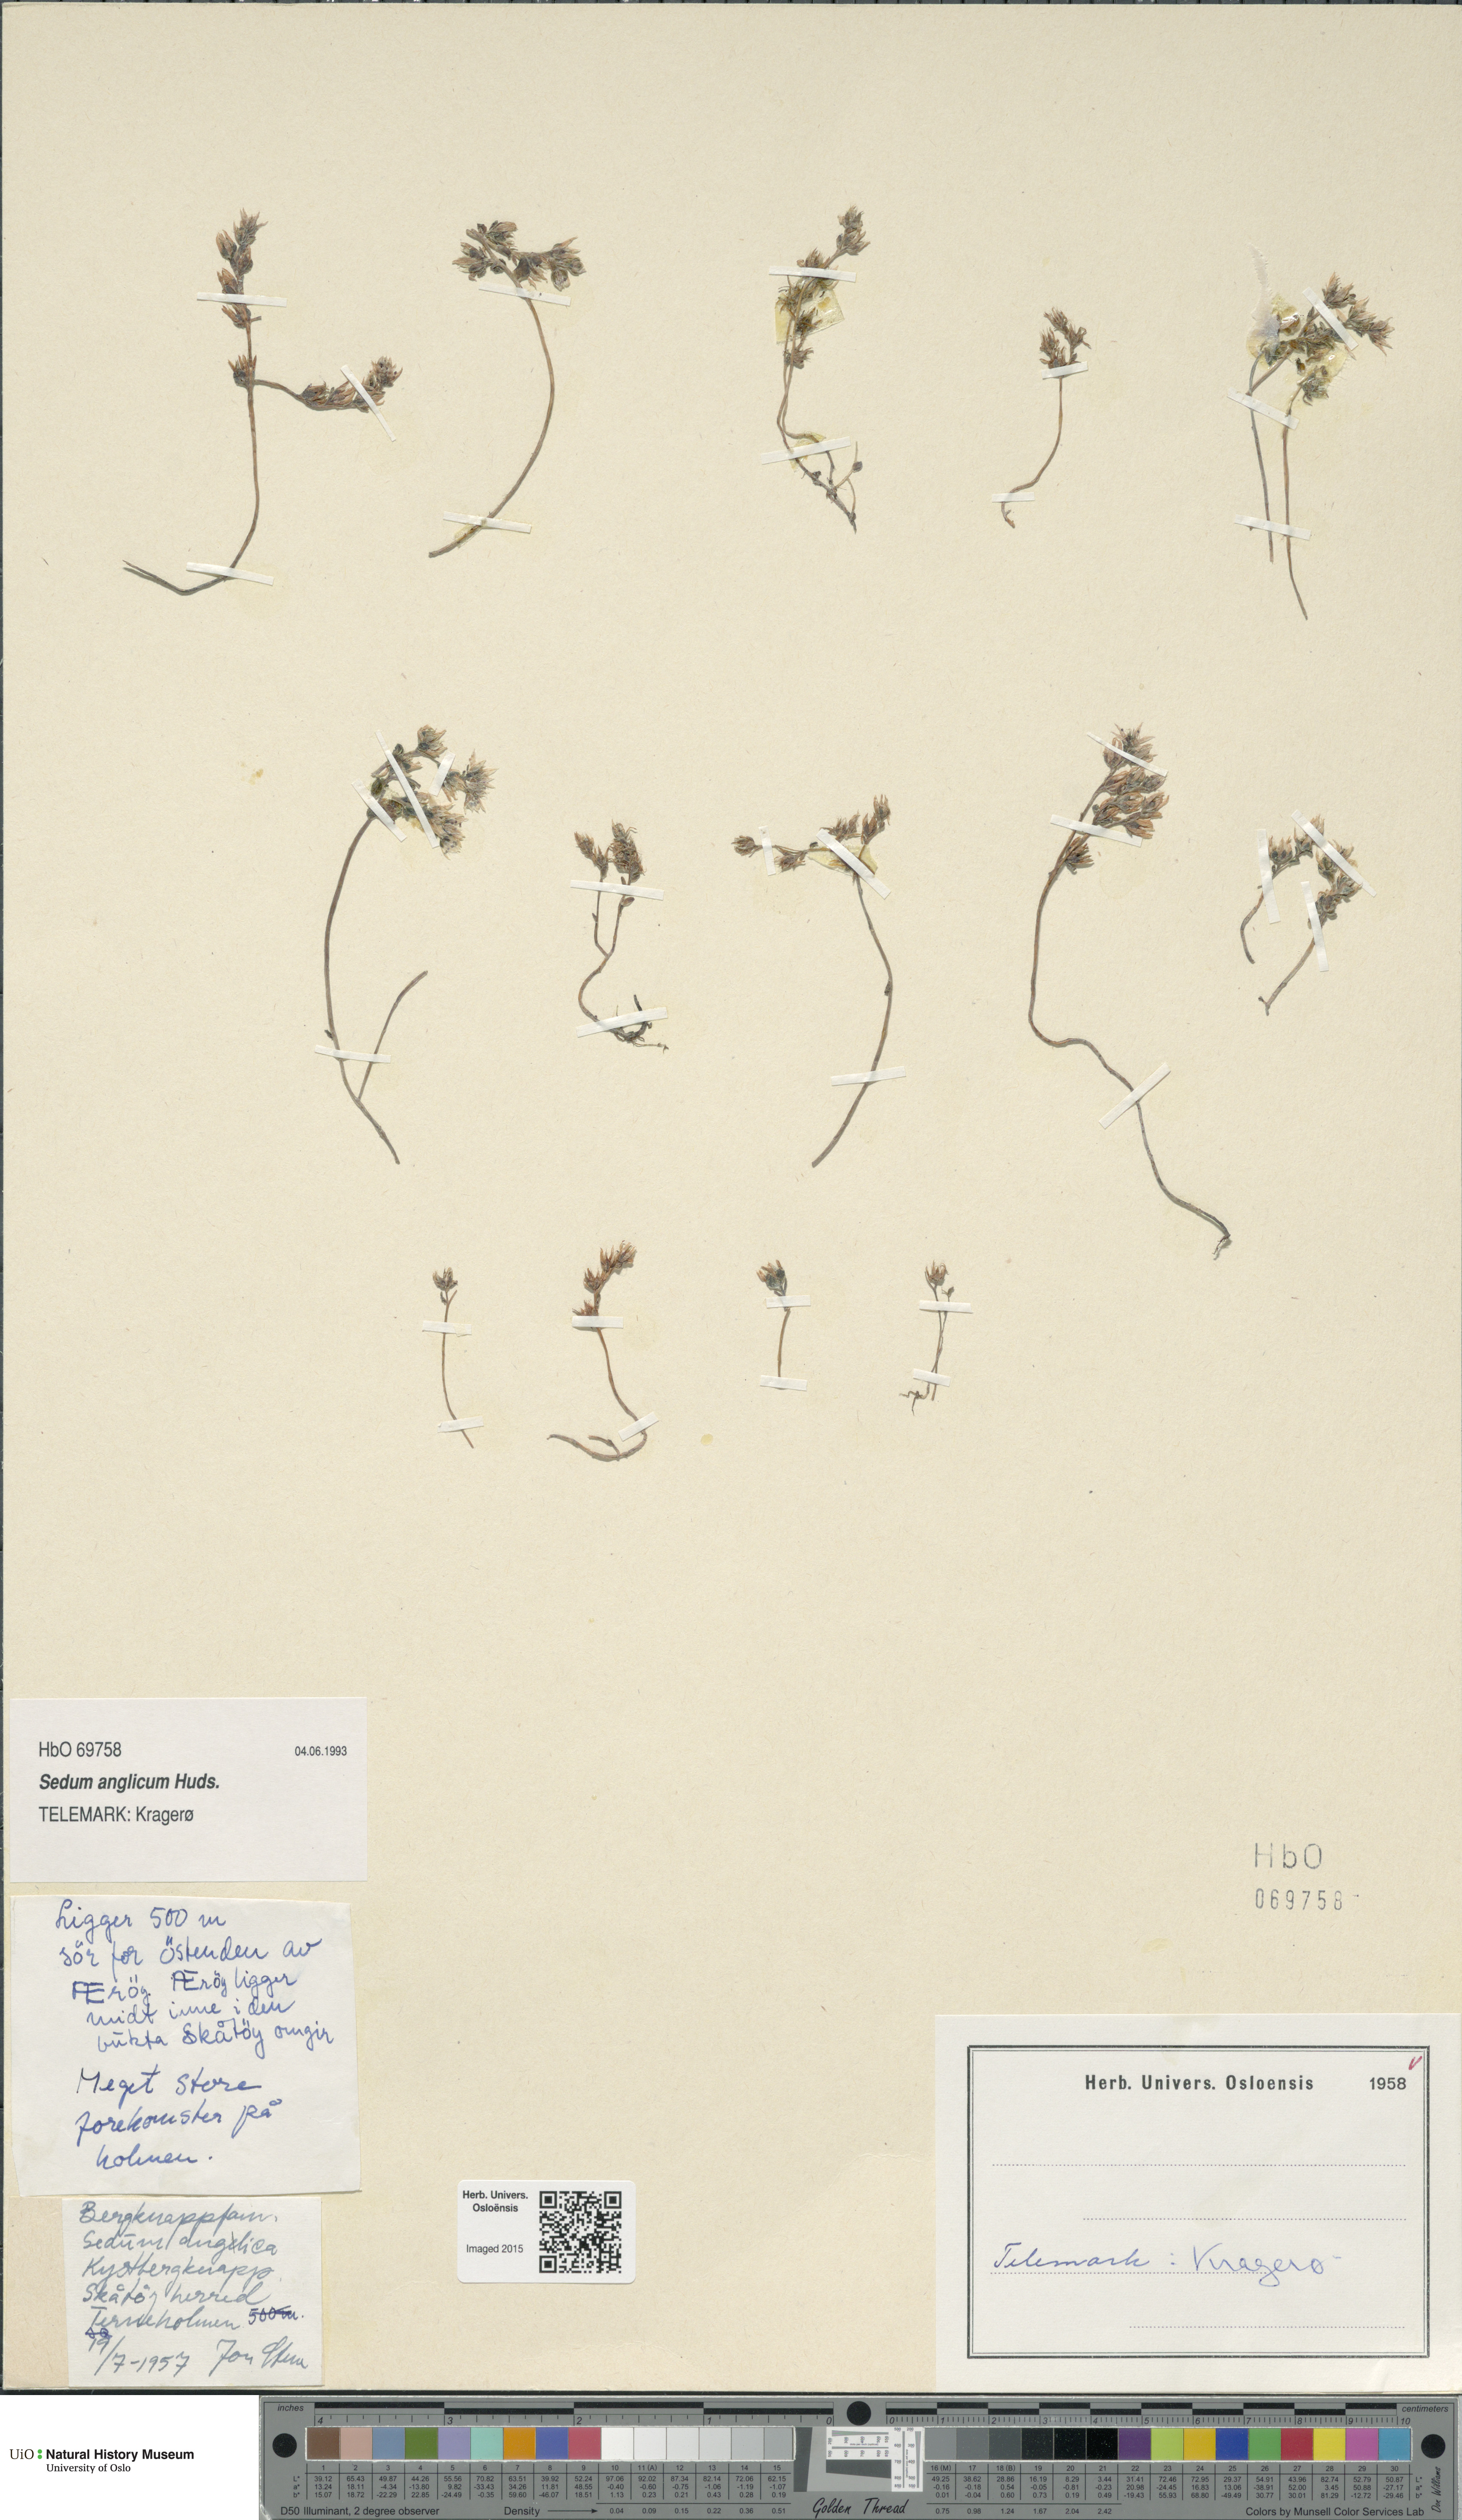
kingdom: Plantae
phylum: Tracheophyta
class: Magnoliopsida
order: Saxifragales
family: Crassulaceae
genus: Sedum
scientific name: Sedum anglicum
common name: English stonecrop
